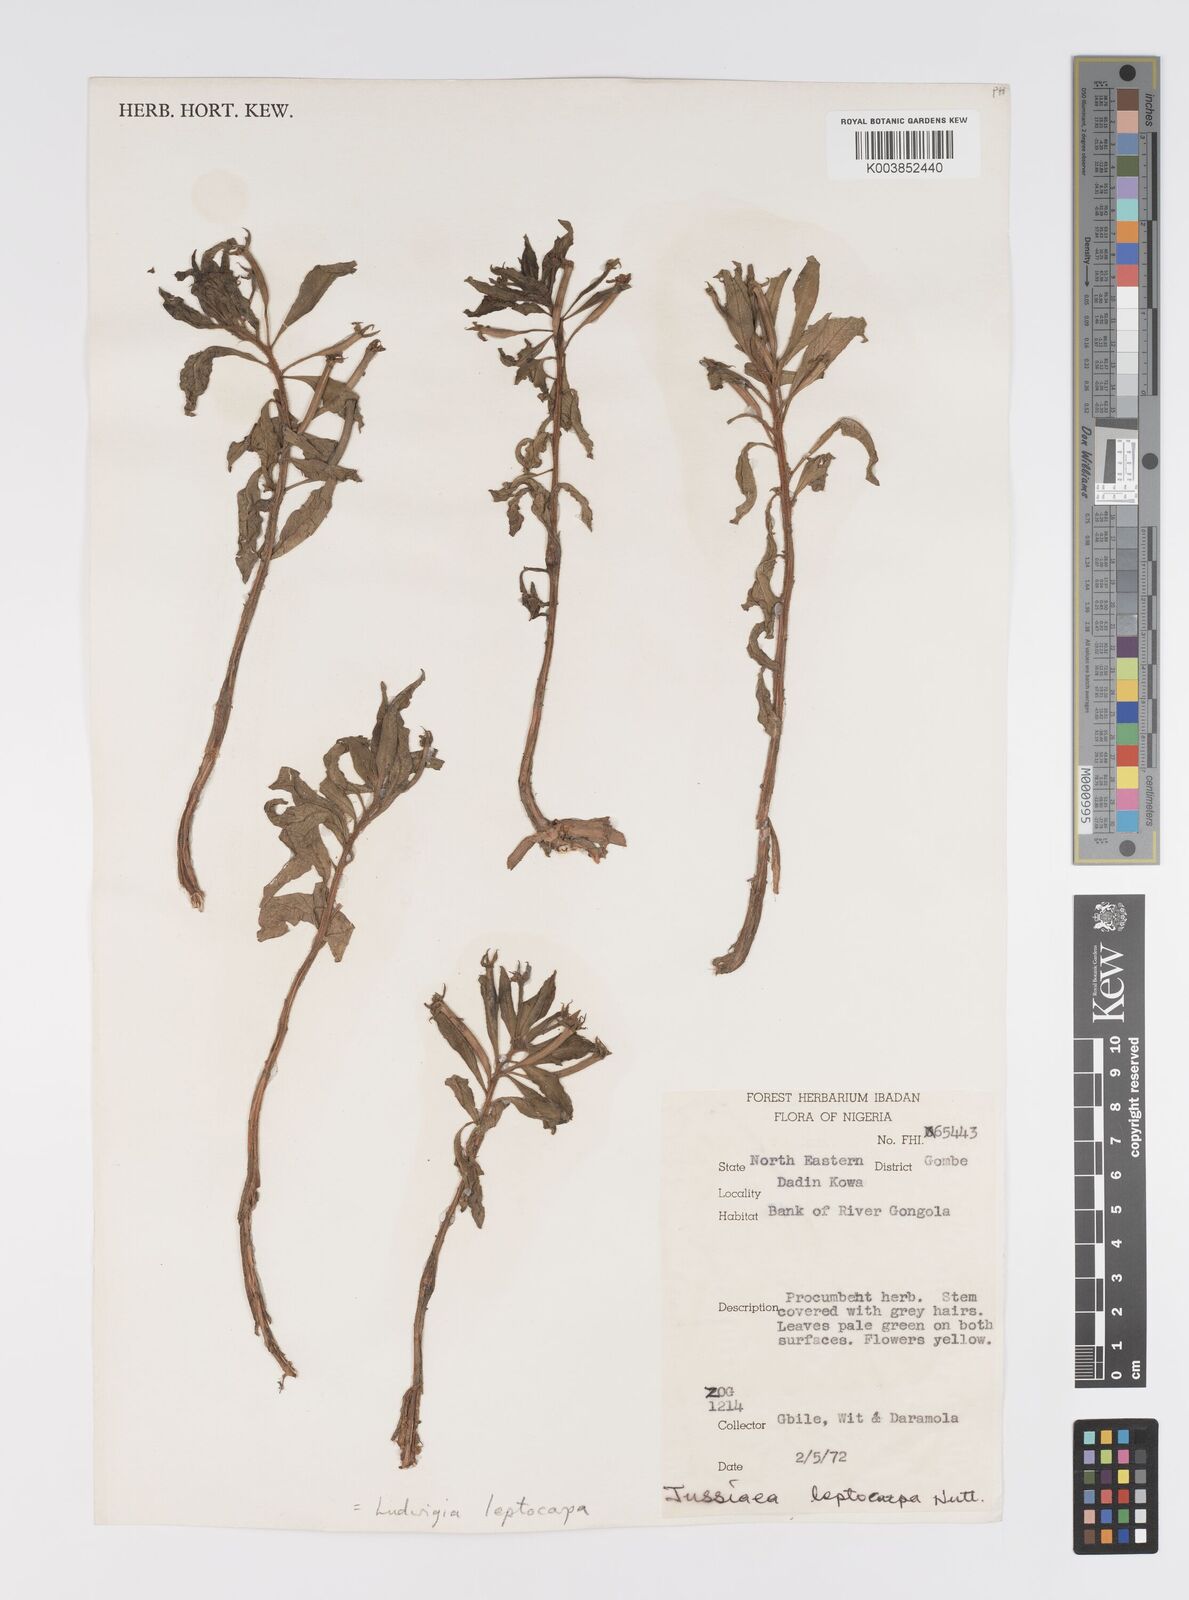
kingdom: Plantae
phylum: Tracheophyta
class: Magnoliopsida
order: Myrtales
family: Onagraceae
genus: Ludwigia
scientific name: Ludwigia leptocarpa
